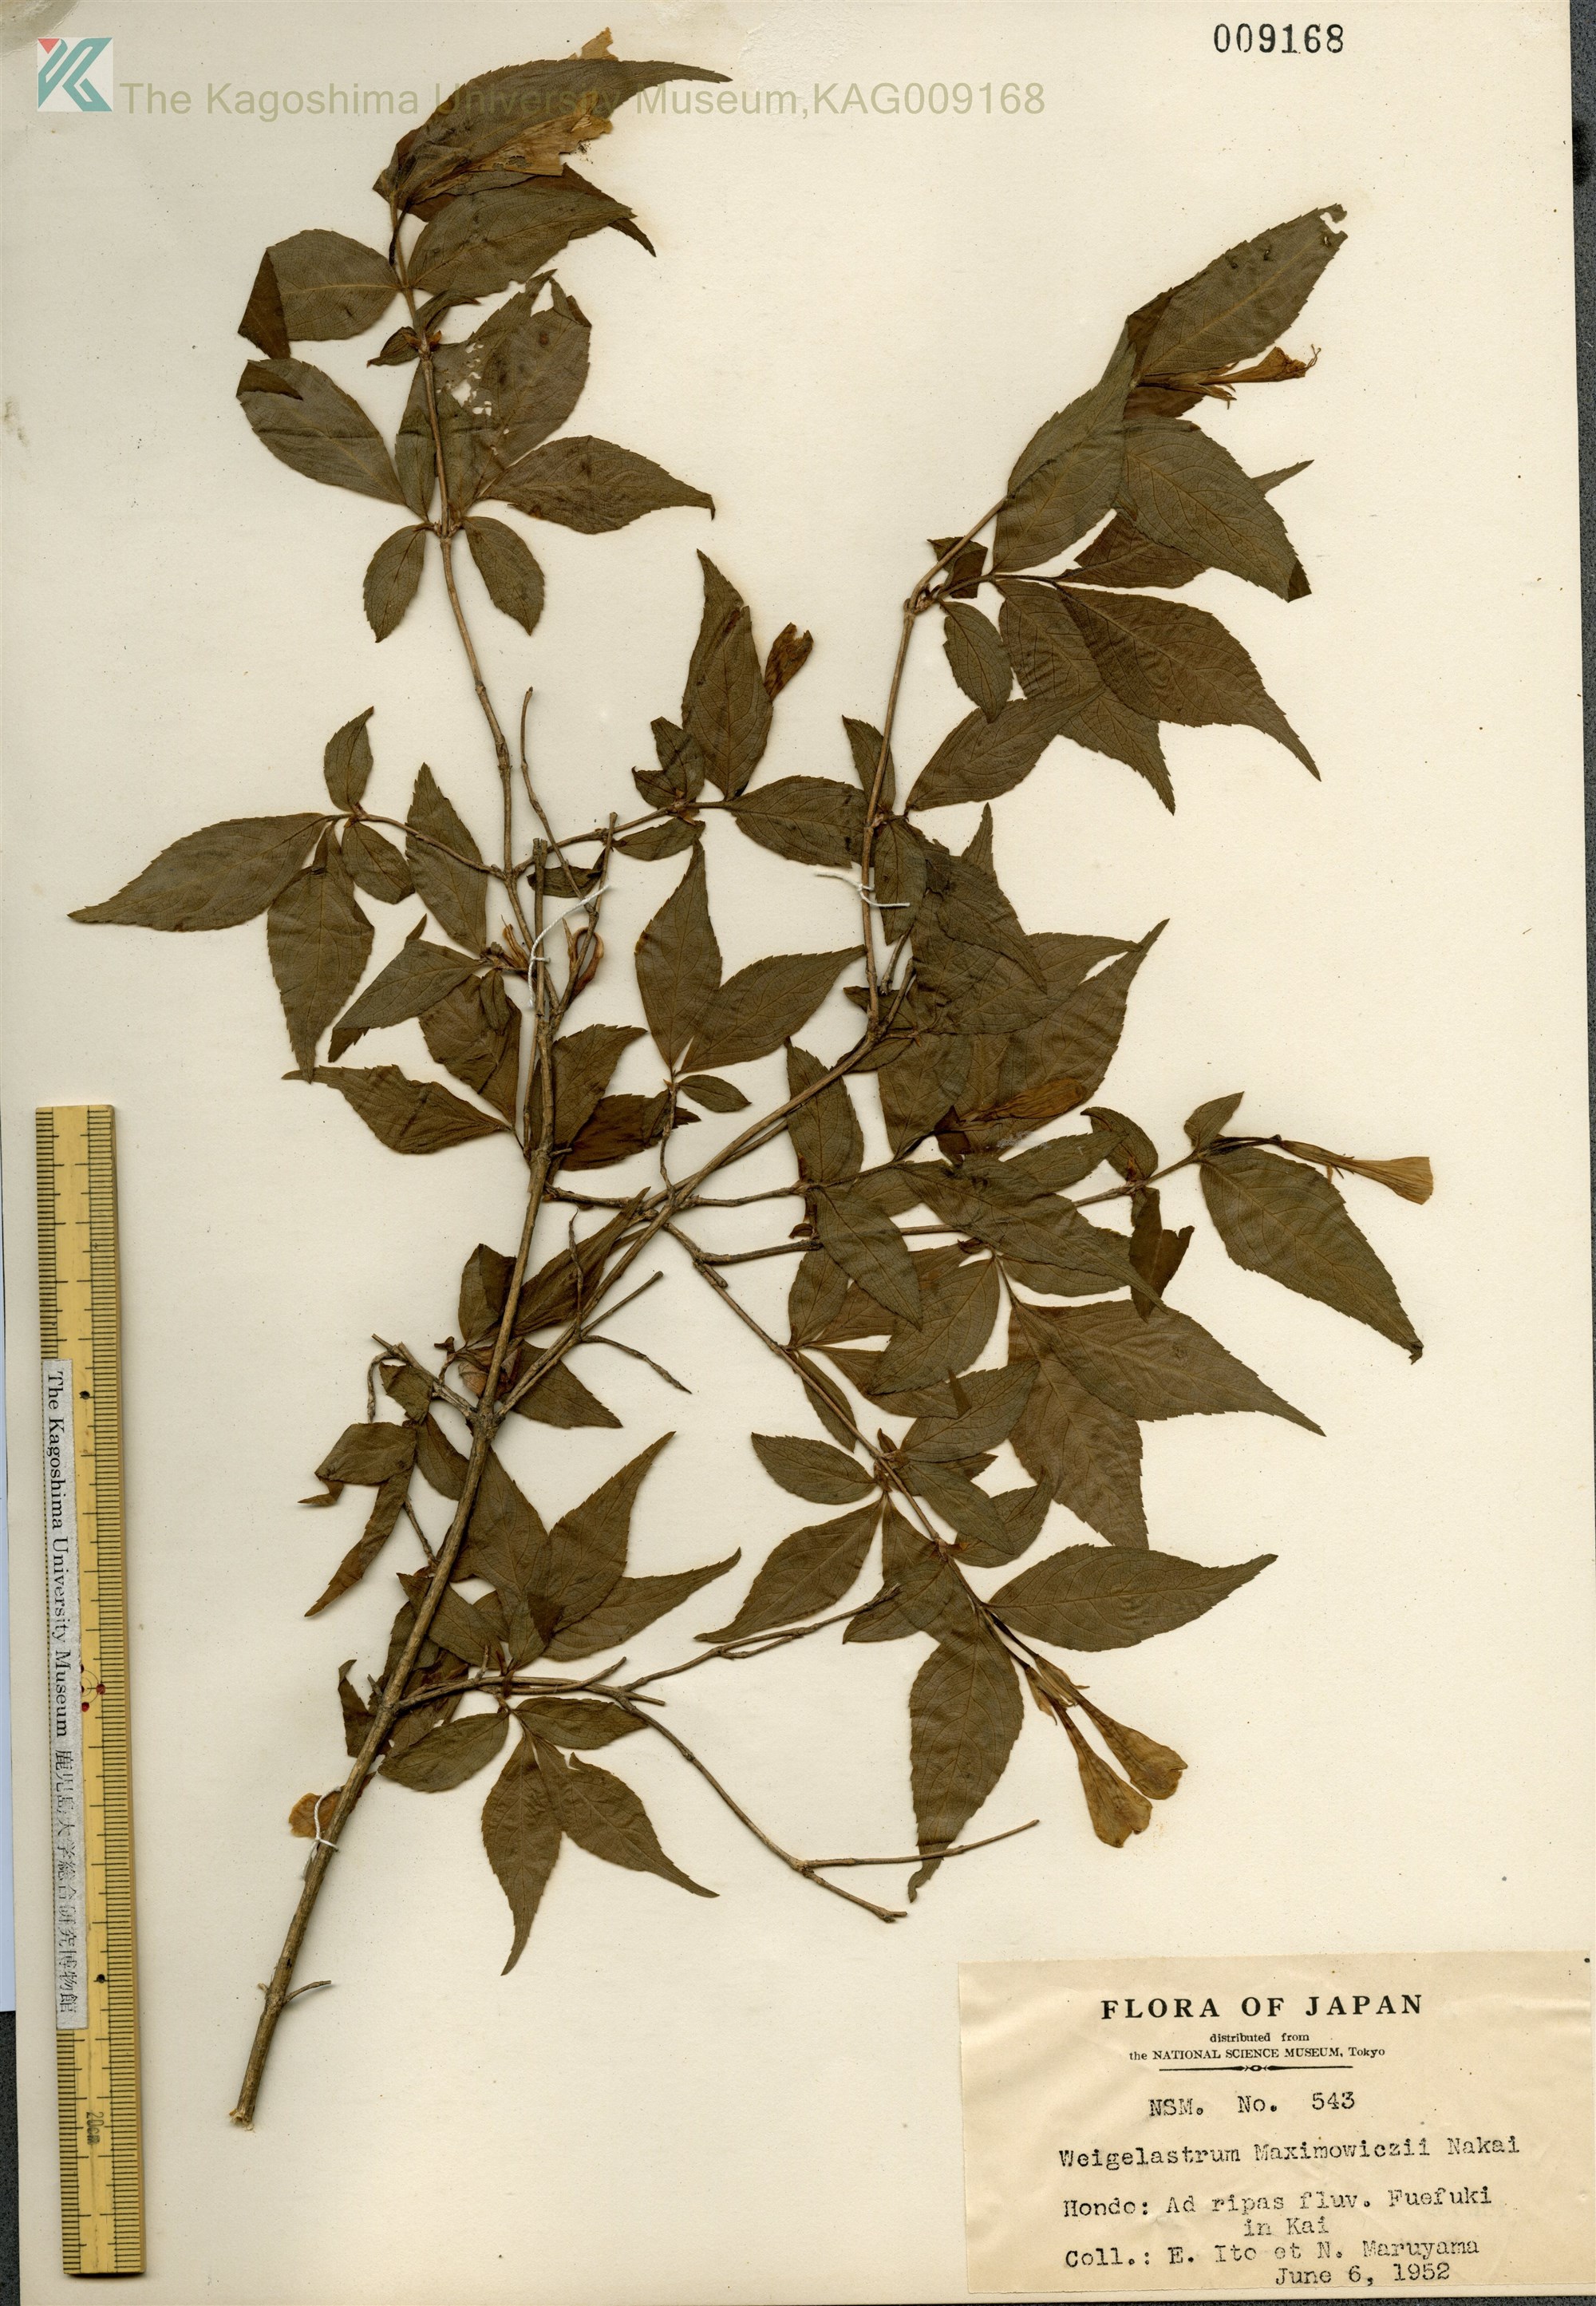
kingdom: Plantae
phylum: Tracheophyta
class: Magnoliopsida
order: Dipsacales
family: Caprifoliaceae
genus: Weigela
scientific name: Weigela maximowiczii
